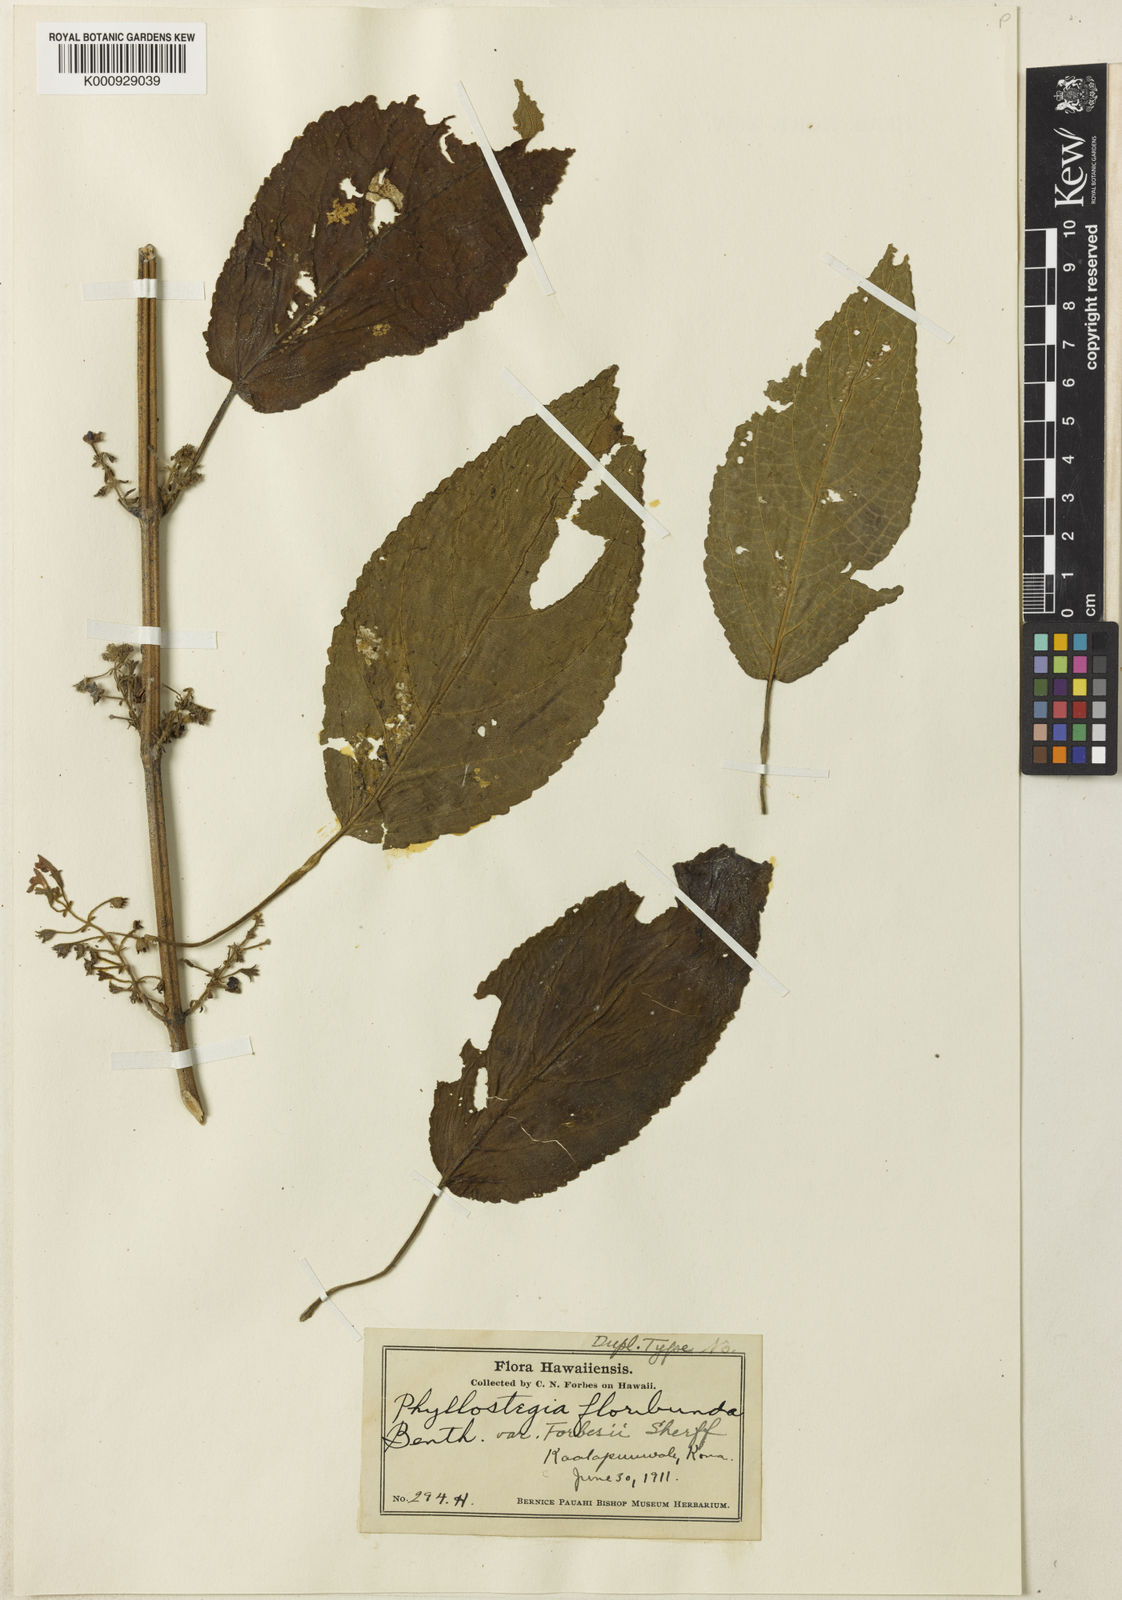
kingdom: Plantae
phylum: Tracheophyta
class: Magnoliopsida
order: Lamiales
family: Lamiaceae
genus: Phyllostegia
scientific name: Phyllostegia floribunda
